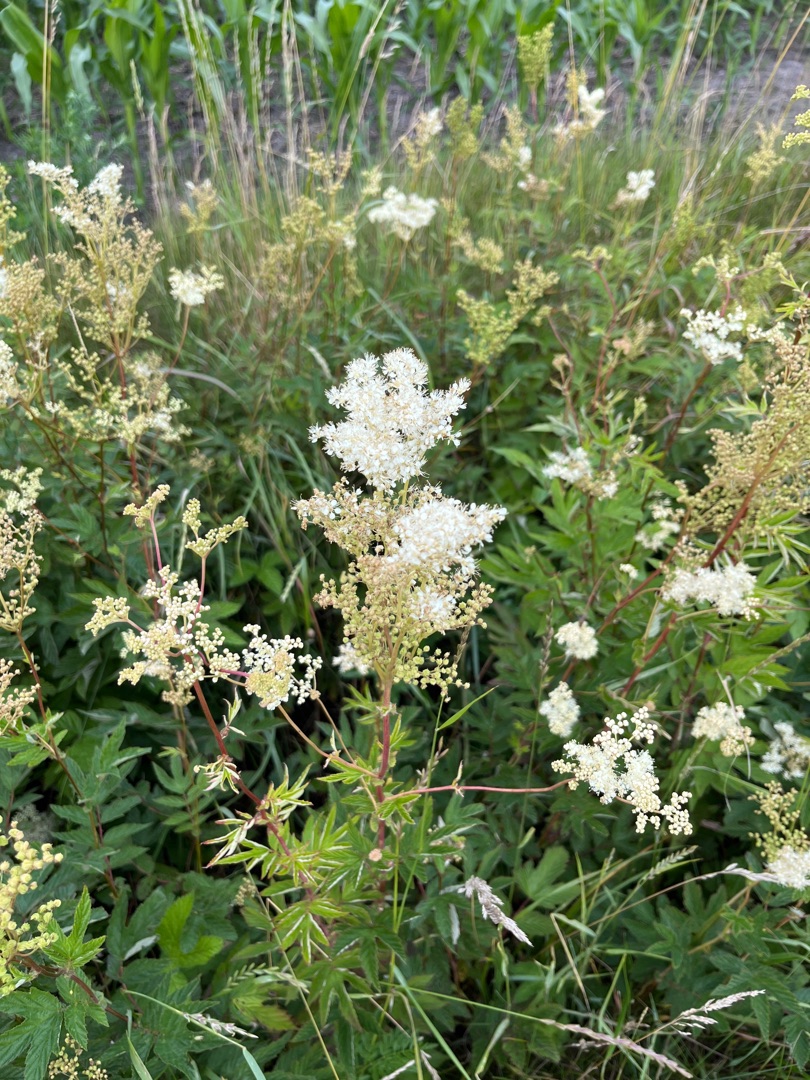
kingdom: Plantae
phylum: Tracheophyta
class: Magnoliopsida
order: Rosales
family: Rosaceae
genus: Filipendula
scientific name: Filipendula ulmaria
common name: Almindelig mjødurt
